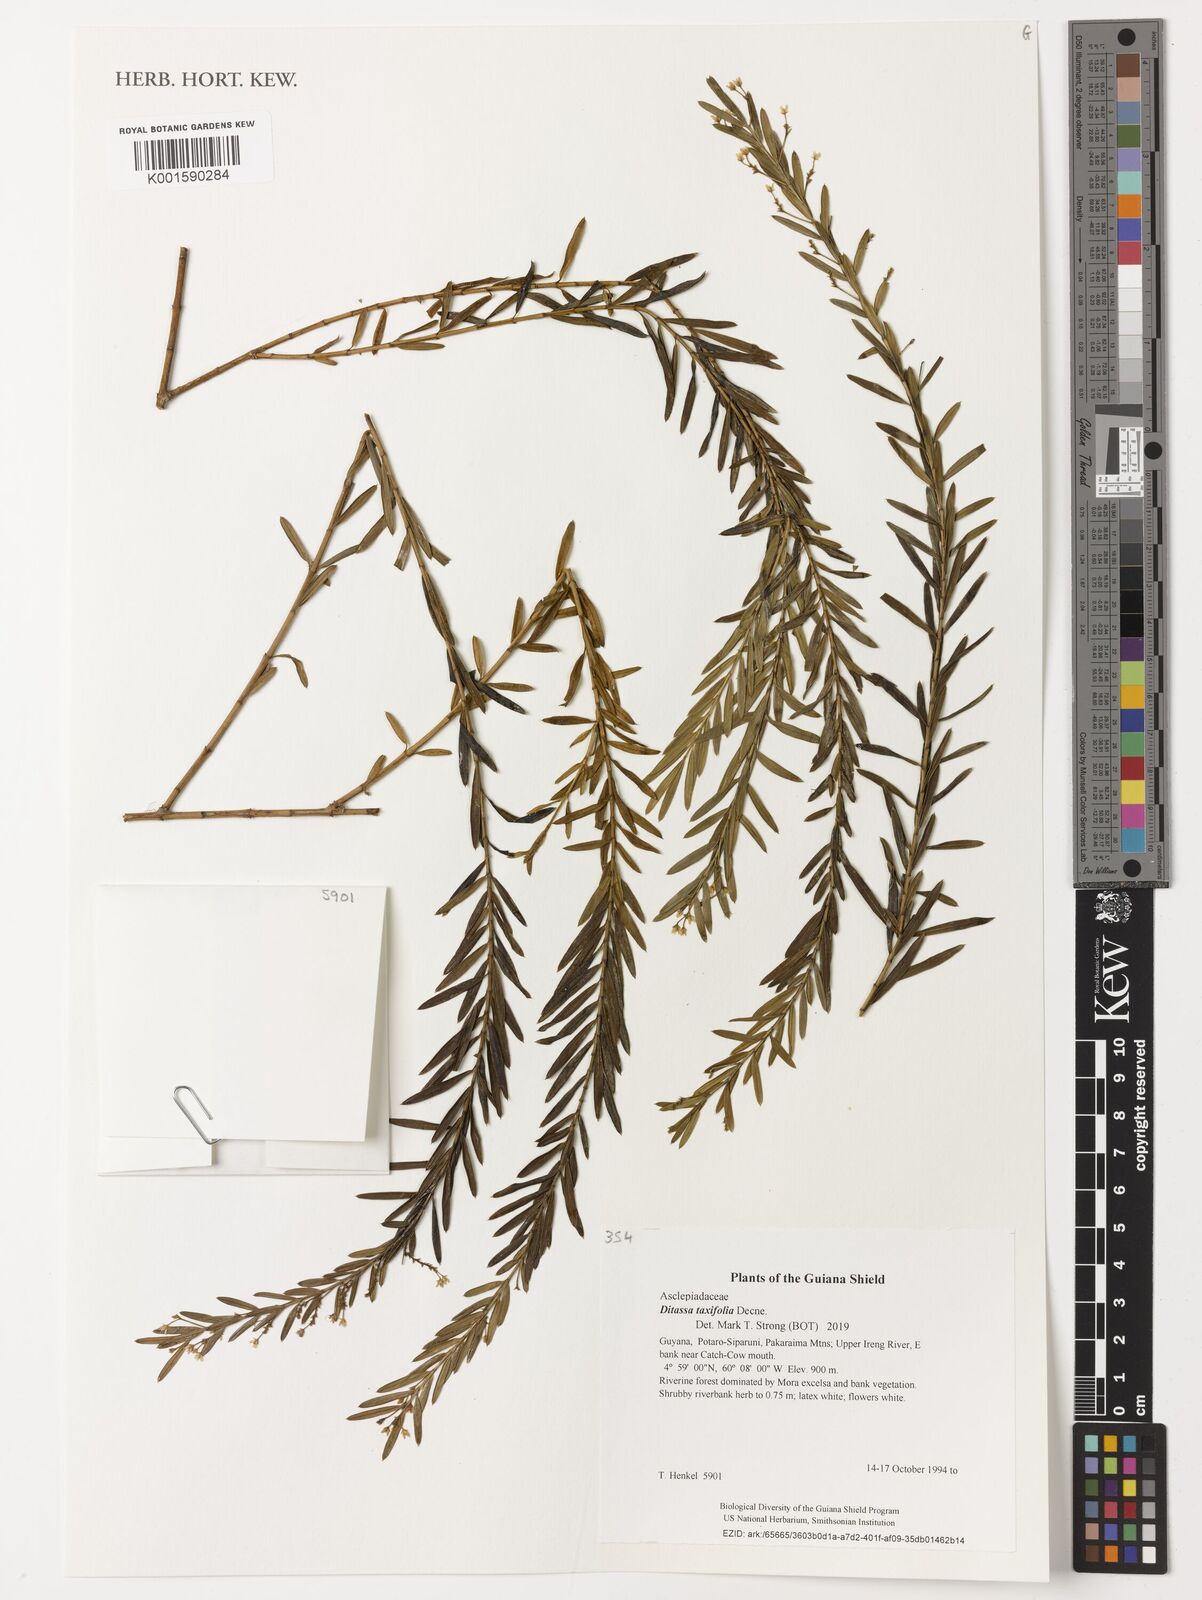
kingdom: Plantae
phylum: Tracheophyta
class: Magnoliopsida
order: Gentianales
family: Apocynaceae
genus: Ditassa
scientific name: Ditassa taxifolia
